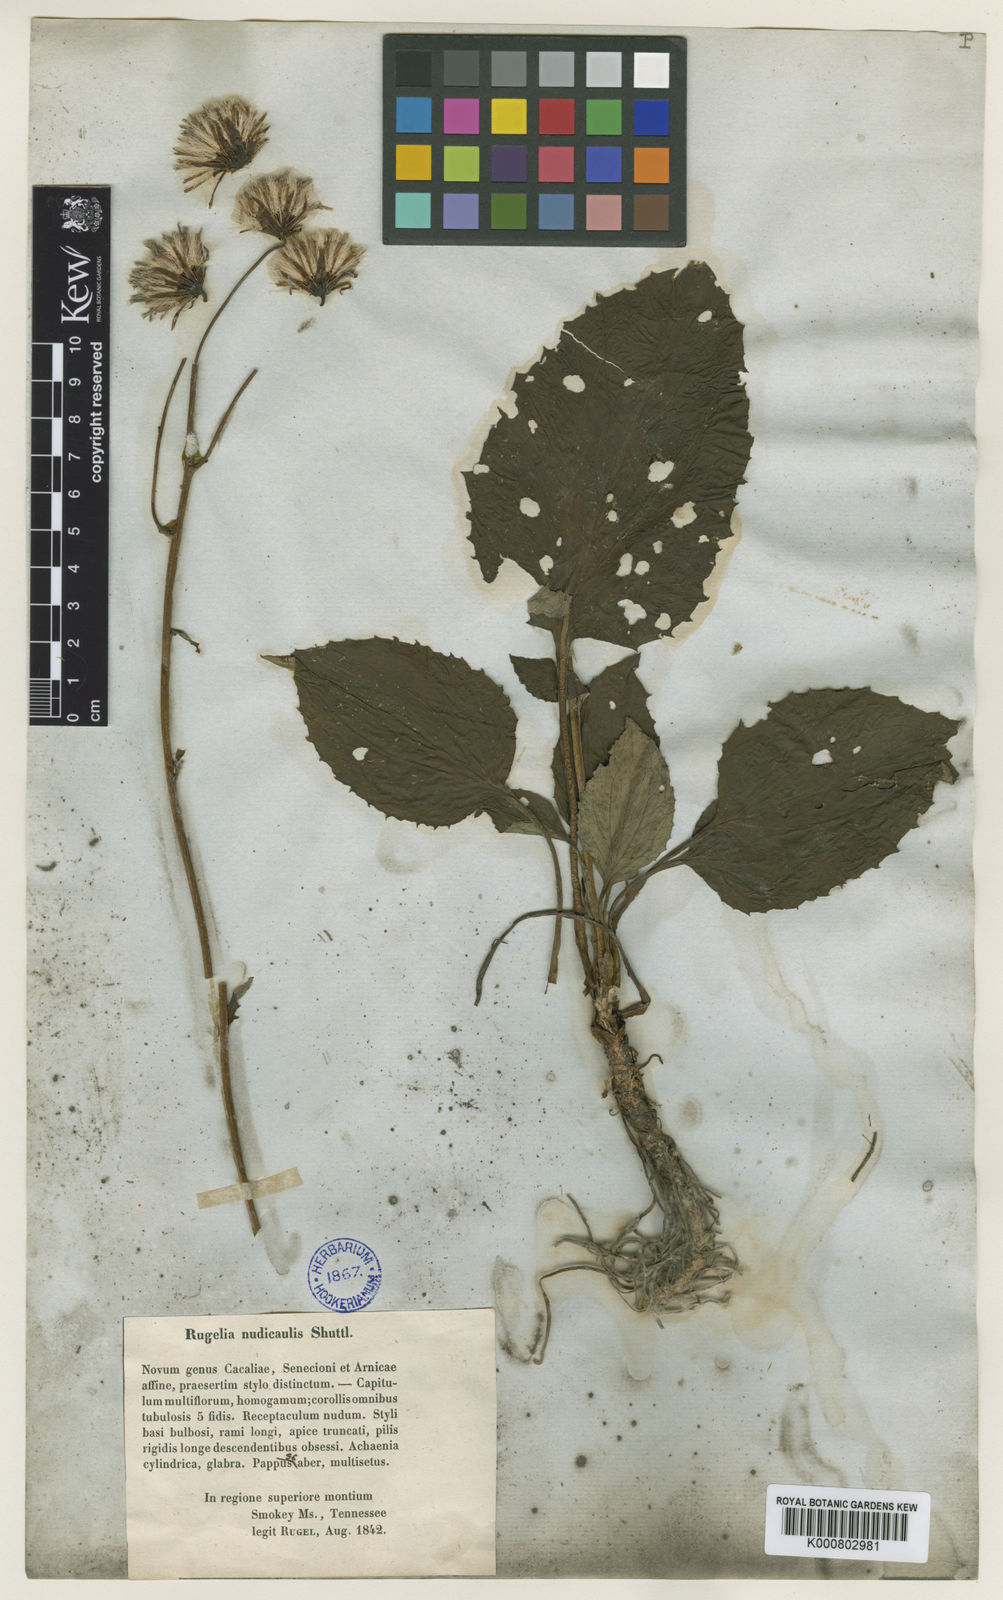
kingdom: Plantae
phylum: Tracheophyta
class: Magnoliopsida
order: Asterales
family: Asteraceae
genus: Rugelia
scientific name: Rugelia nudicaulis
